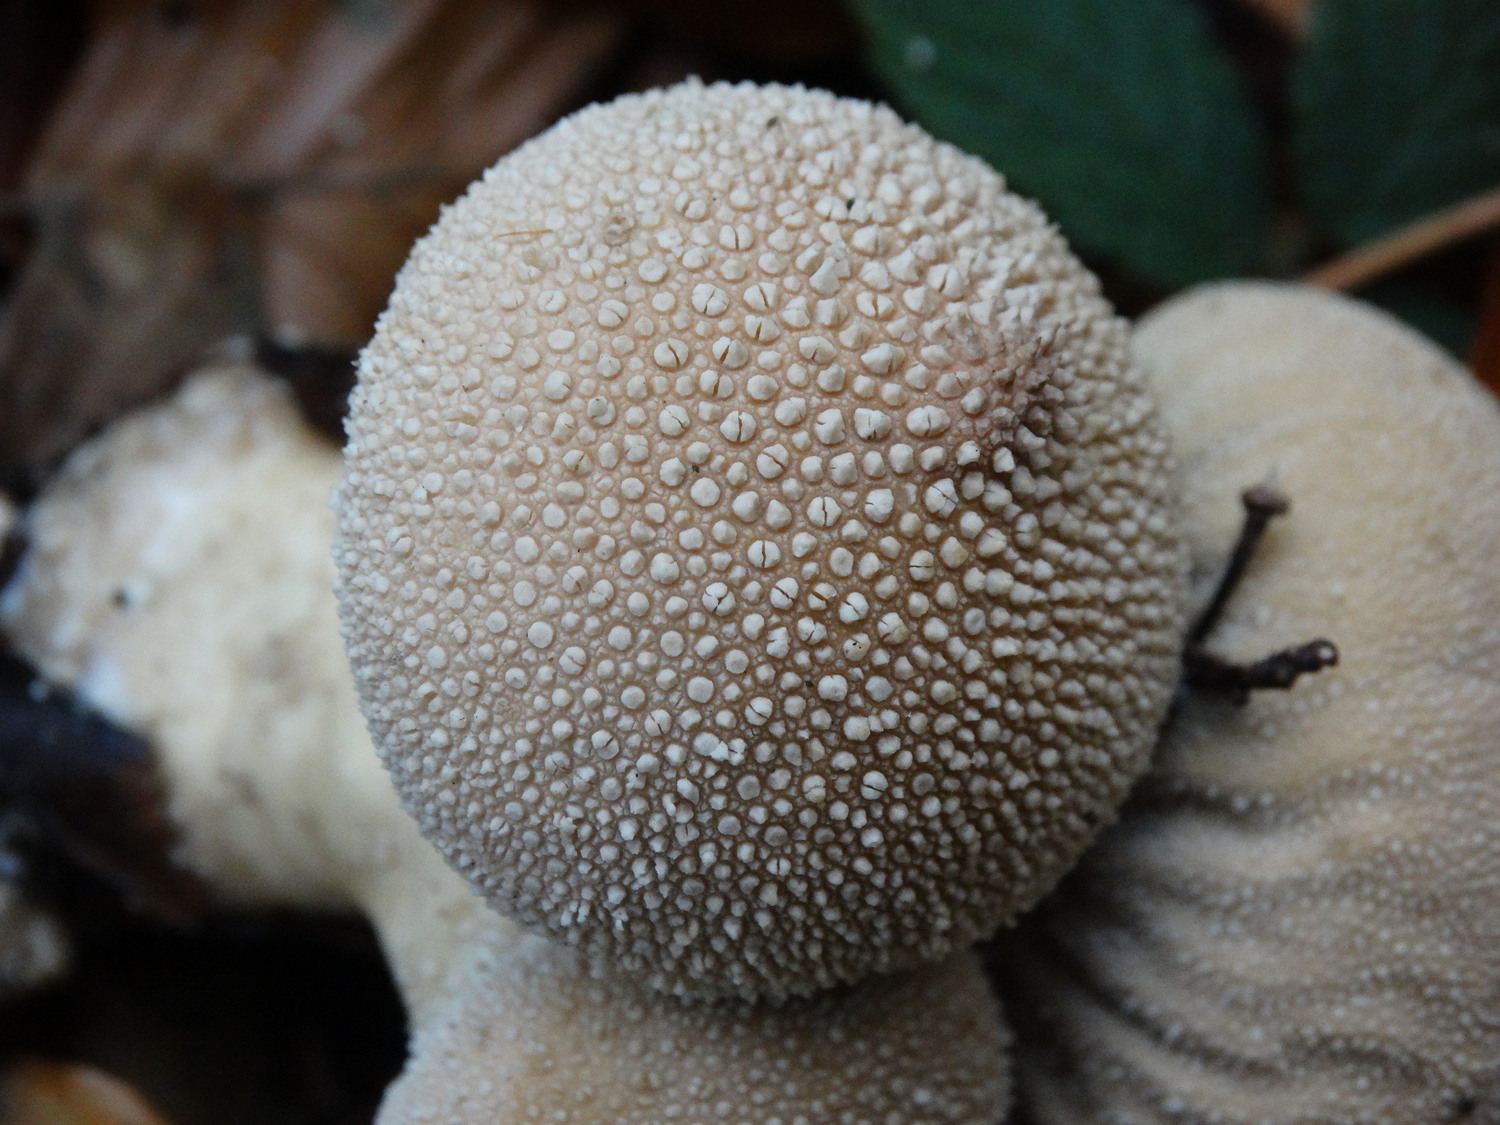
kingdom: Fungi
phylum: Basidiomycota
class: Agaricomycetes
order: Agaricales
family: Lycoperdaceae
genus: Lycoperdon
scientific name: Lycoperdon perlatum
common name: krystal-støvbold
